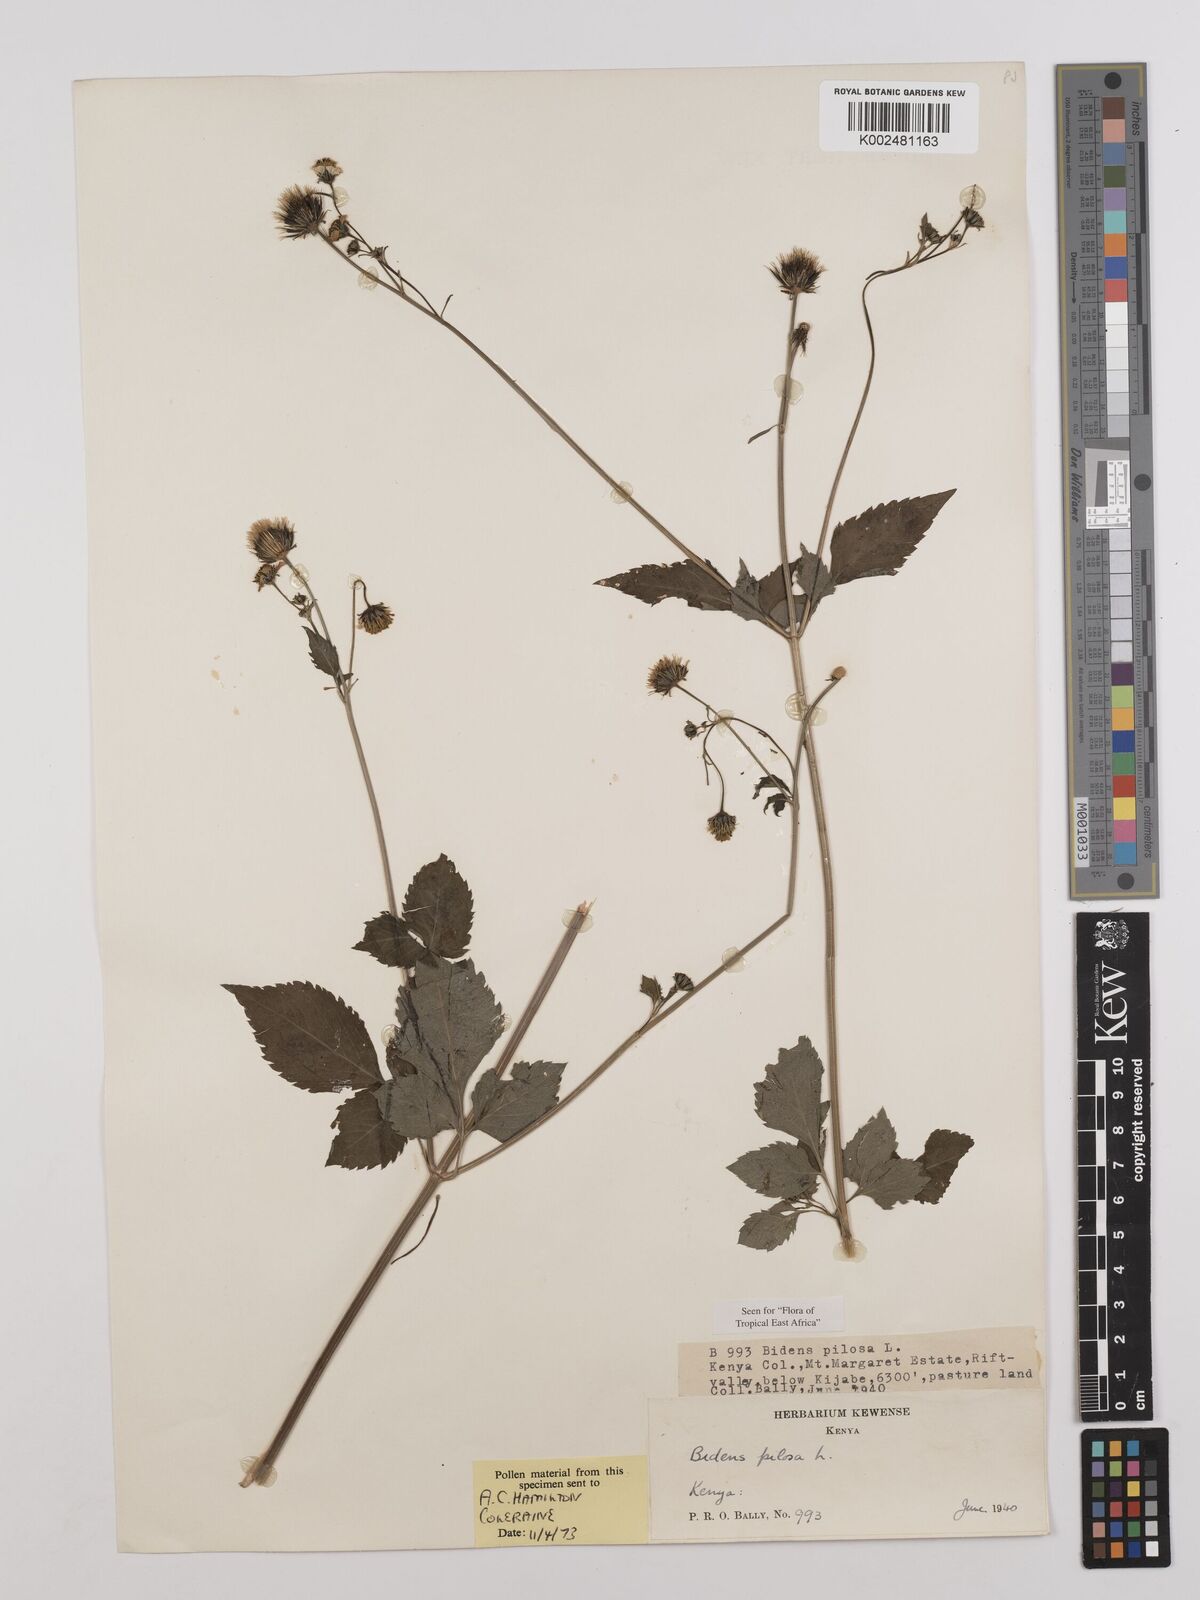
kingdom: Plantae
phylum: Tracheophyta
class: Magnoliopsida
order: Asterales
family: Asteraceae
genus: Bidens
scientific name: Bidens pilosa
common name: Black-jack
